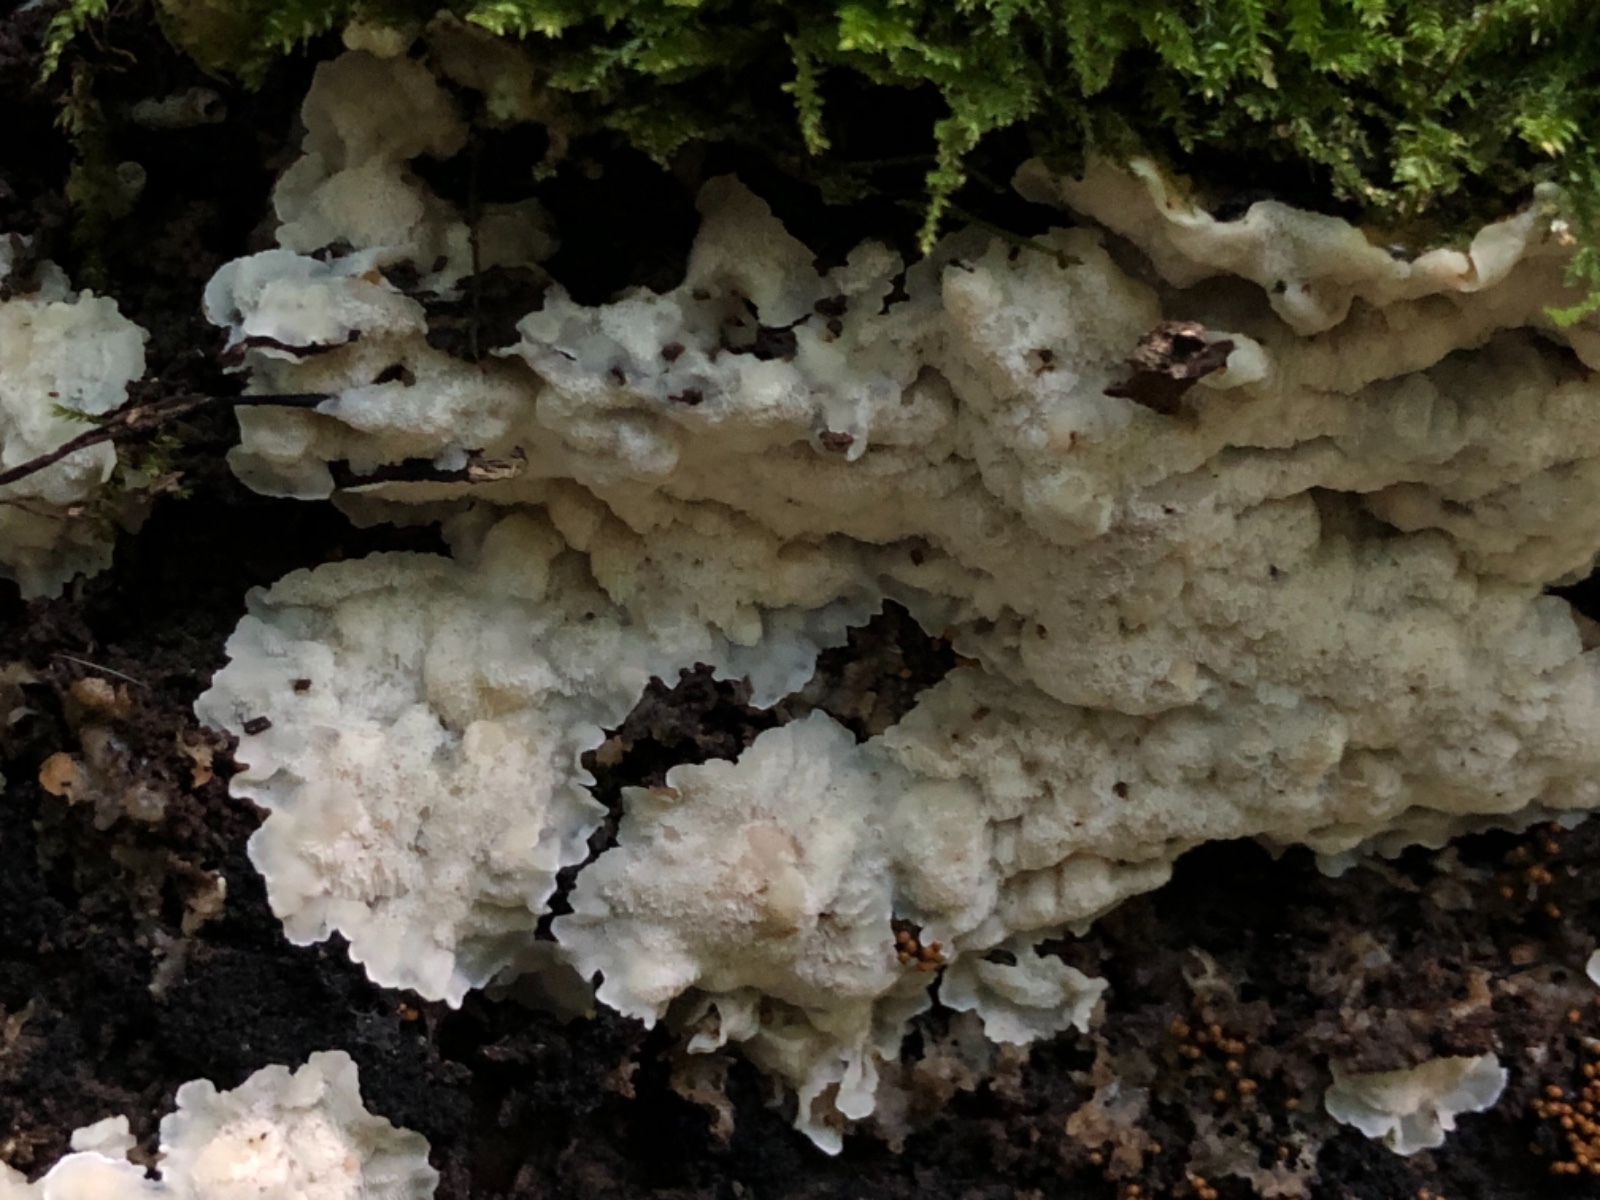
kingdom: Fungi
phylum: Basidiomycota
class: Agaricomycetes
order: Polyporales
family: Meruliaceae
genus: Physisporinus
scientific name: Physisporinus vitreus
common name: mastesvamp
